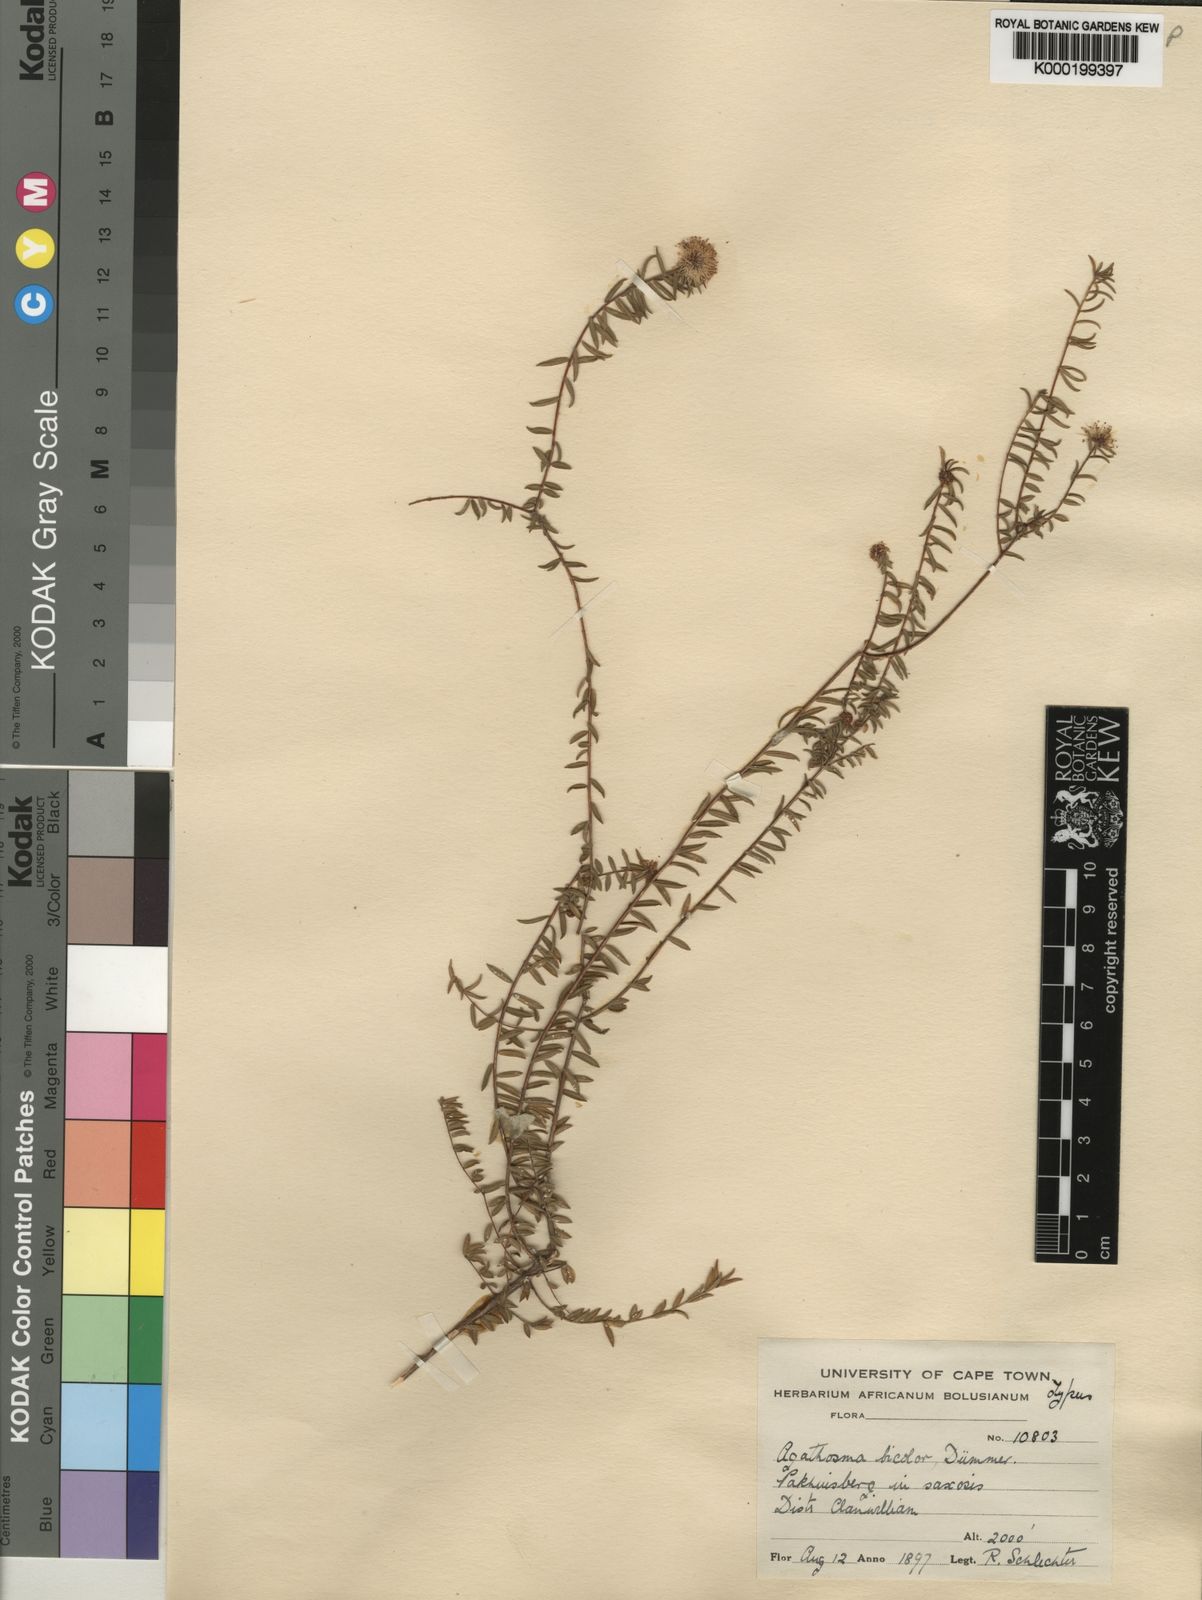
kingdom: Plantae
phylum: Tracheophyta
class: Magnoliopsida
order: Sapindales
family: Rutaceae
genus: Agathosma
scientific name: Agathosma bicolor
